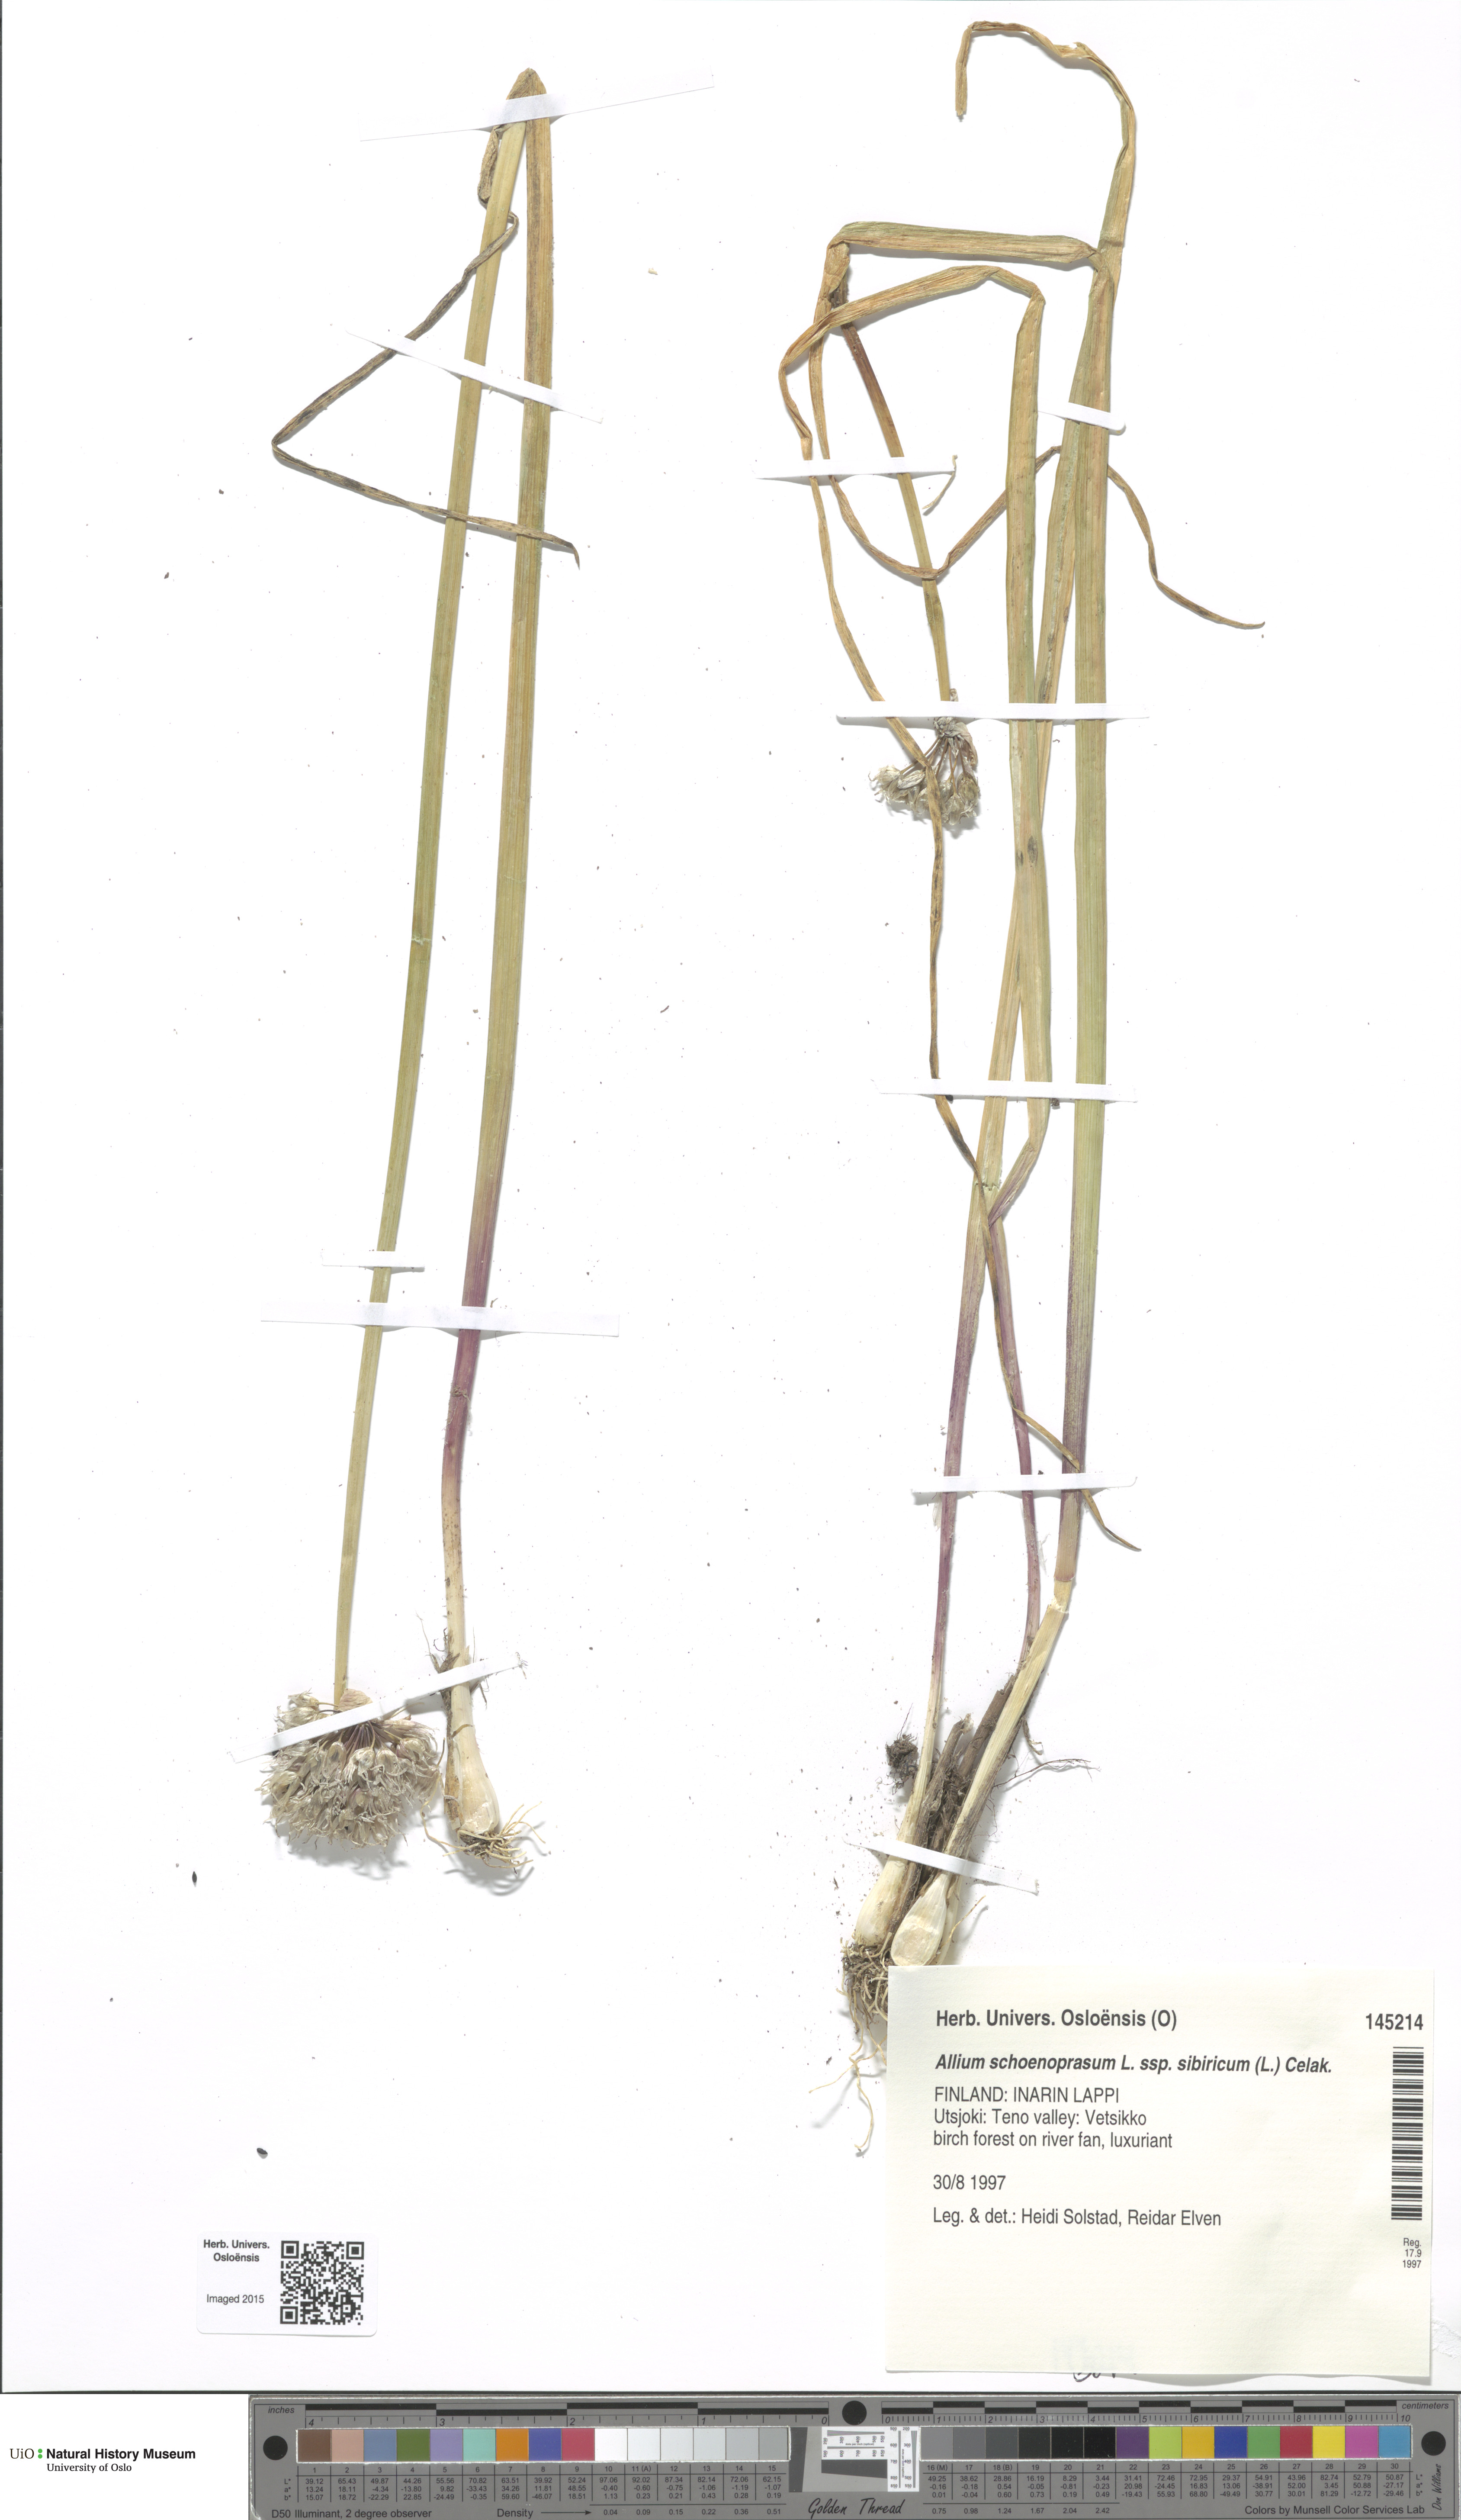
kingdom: Plantae
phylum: Tracheophyta
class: Liliopsida
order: Asparagales
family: Amaryllidaceae
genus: Allium
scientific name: Allium schoenoprasum
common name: Chives
